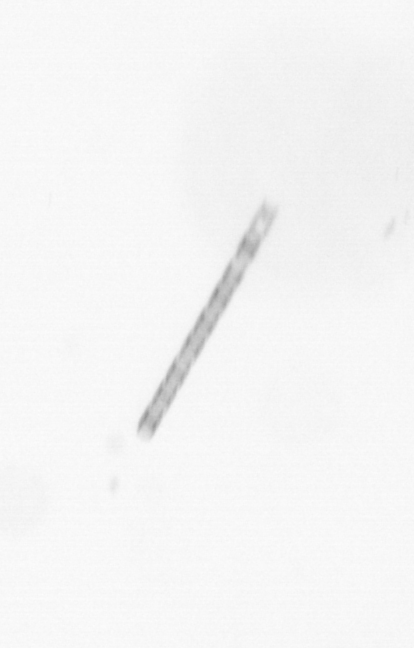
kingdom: Chromista
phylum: Ochrophyta
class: Bacillariophyceae
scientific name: Bacillariophyceae
